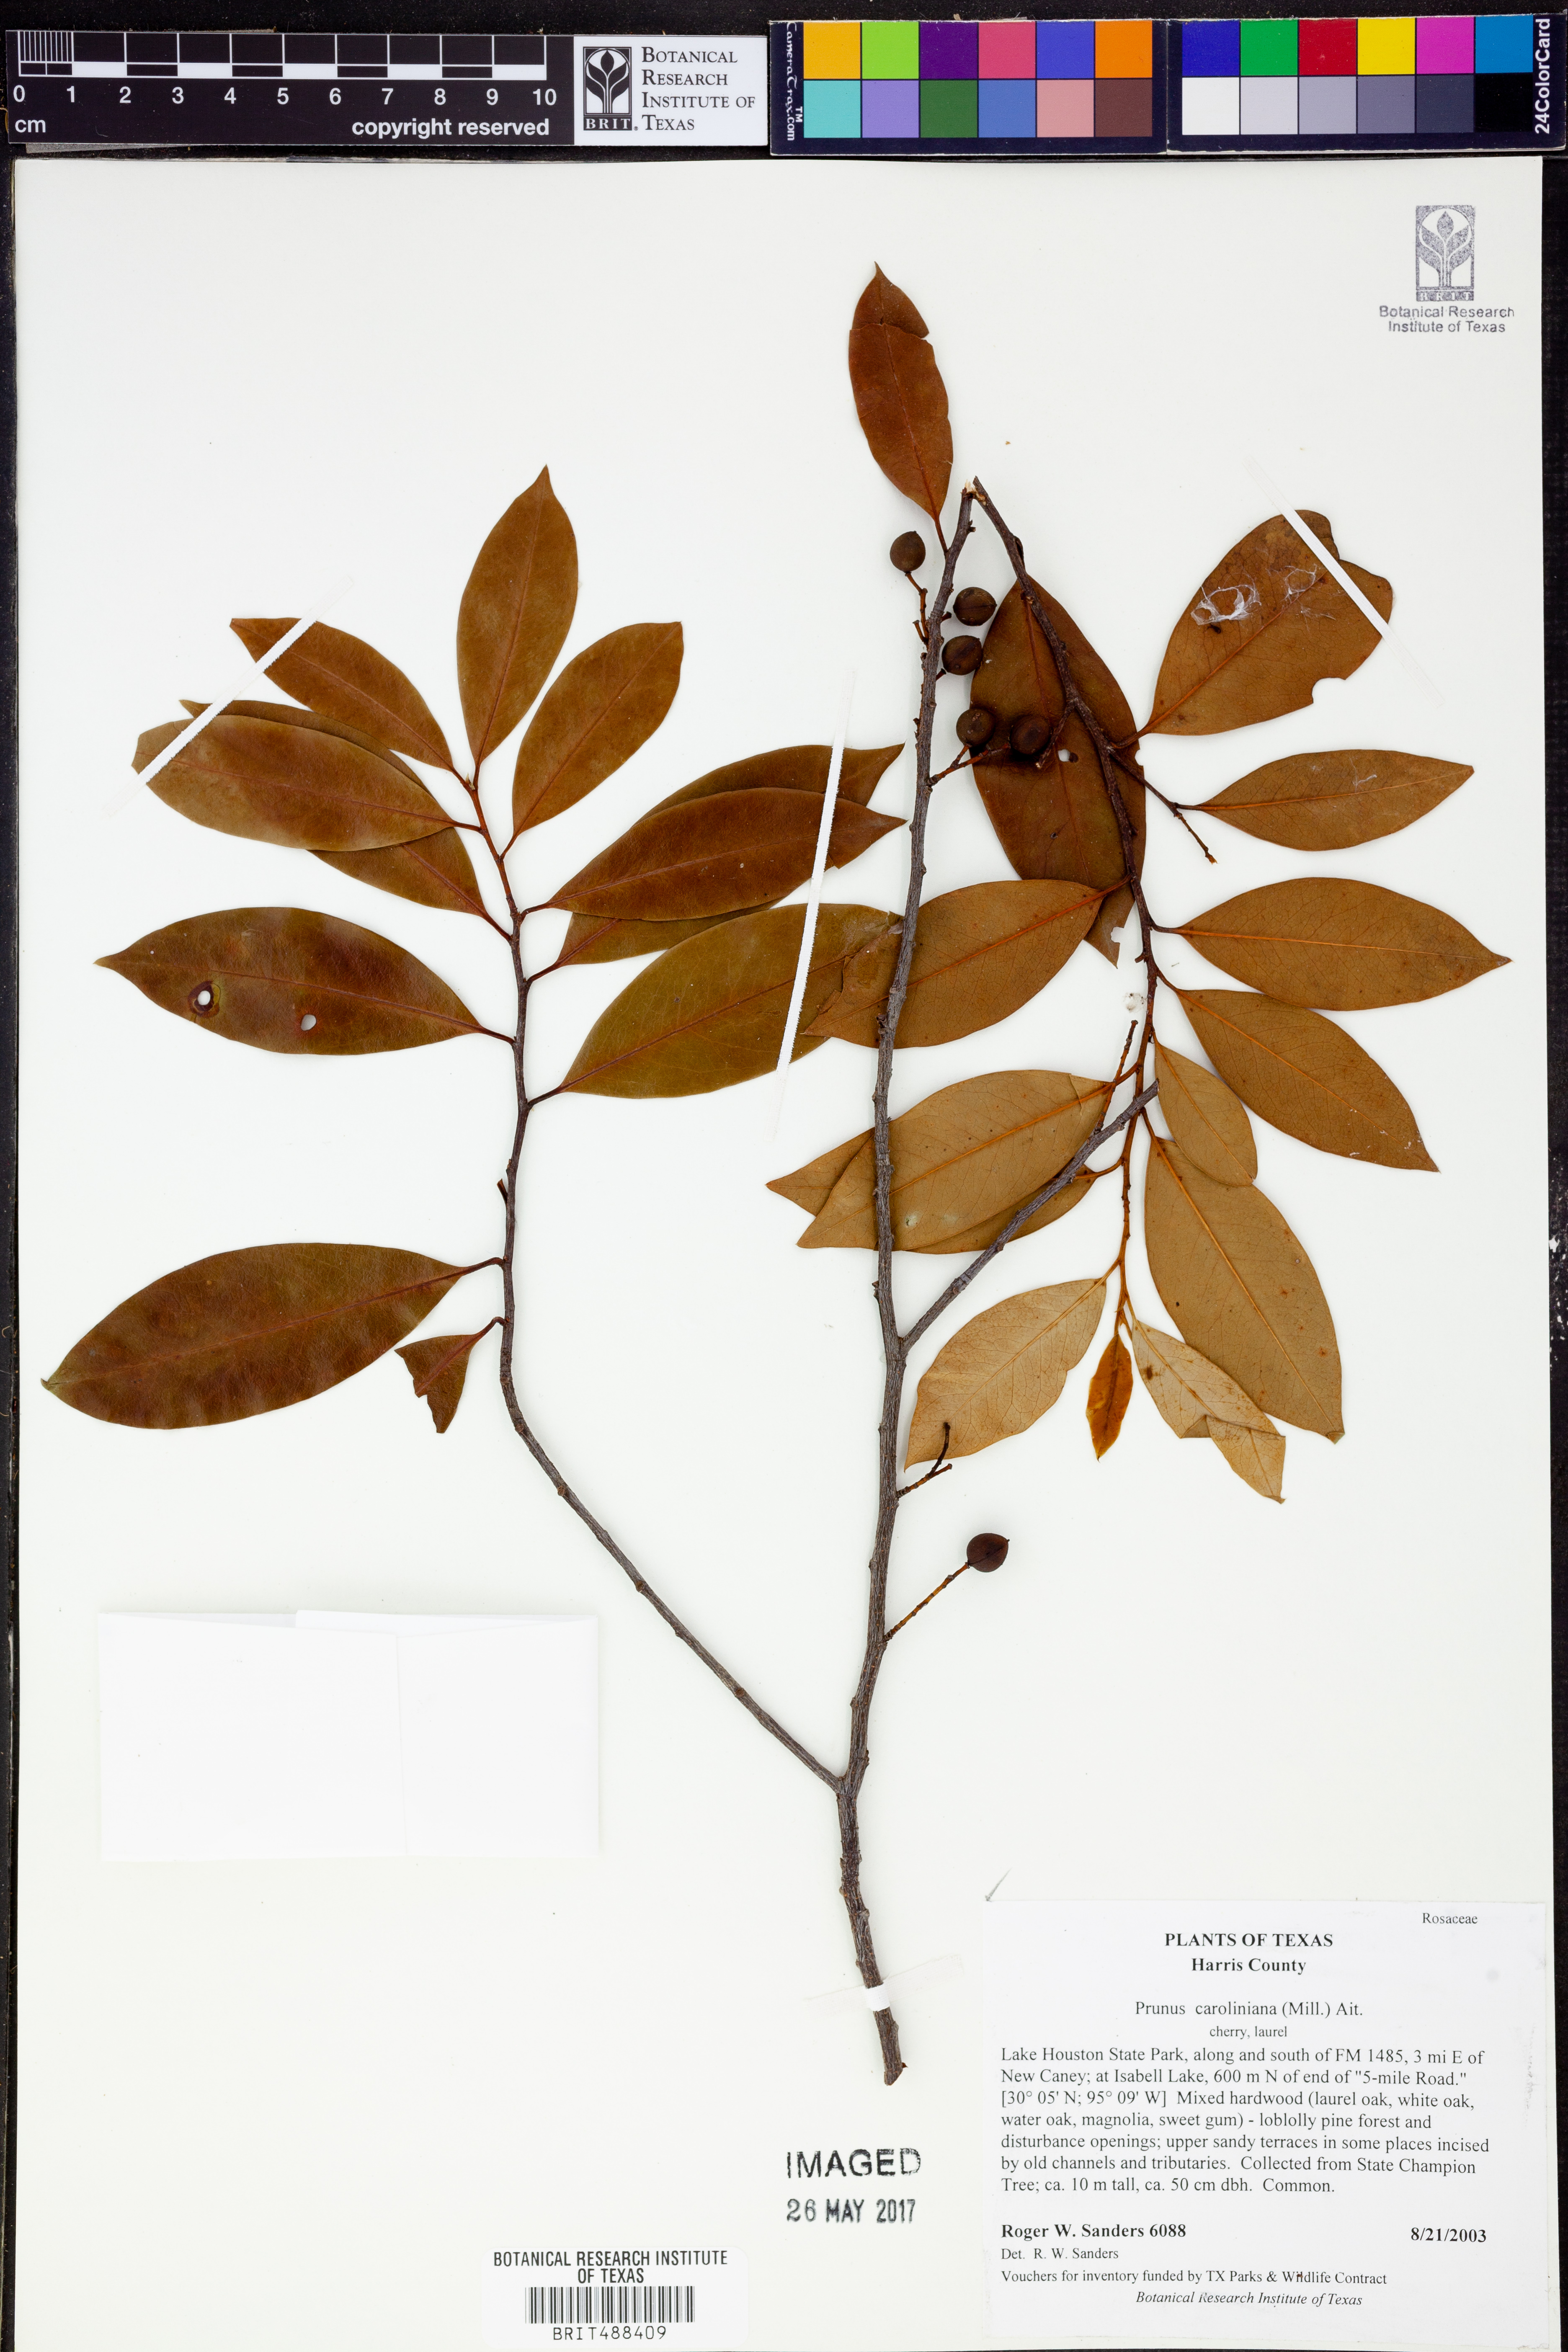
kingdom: Plantae
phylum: Tracheophyta
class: Magnoliopsida
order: Rosales
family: Rosaceae
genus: Prunus
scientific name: Prunus caroliniana
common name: Carolina laurel cherry
